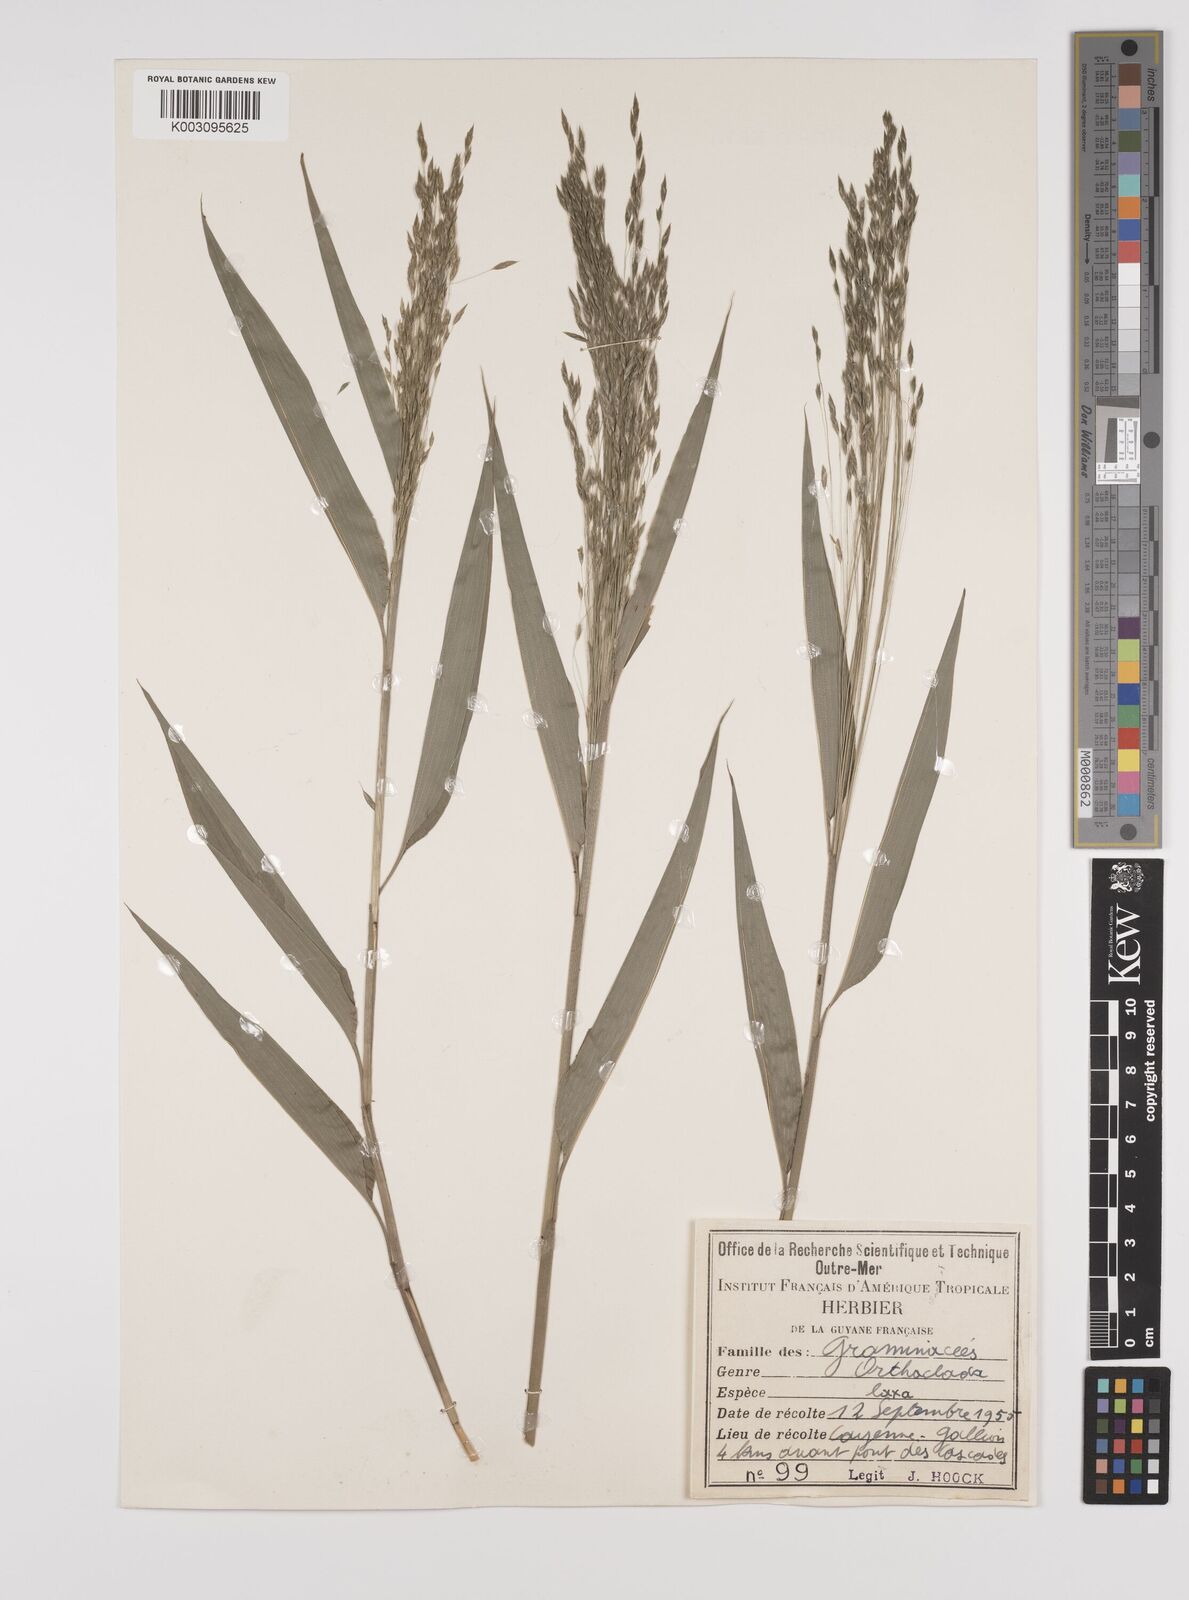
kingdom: Plantae
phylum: Tracheophyta
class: Liliopsida
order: Poales
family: Poaceae
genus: Orthoclada
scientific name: Orthoclada laxa
